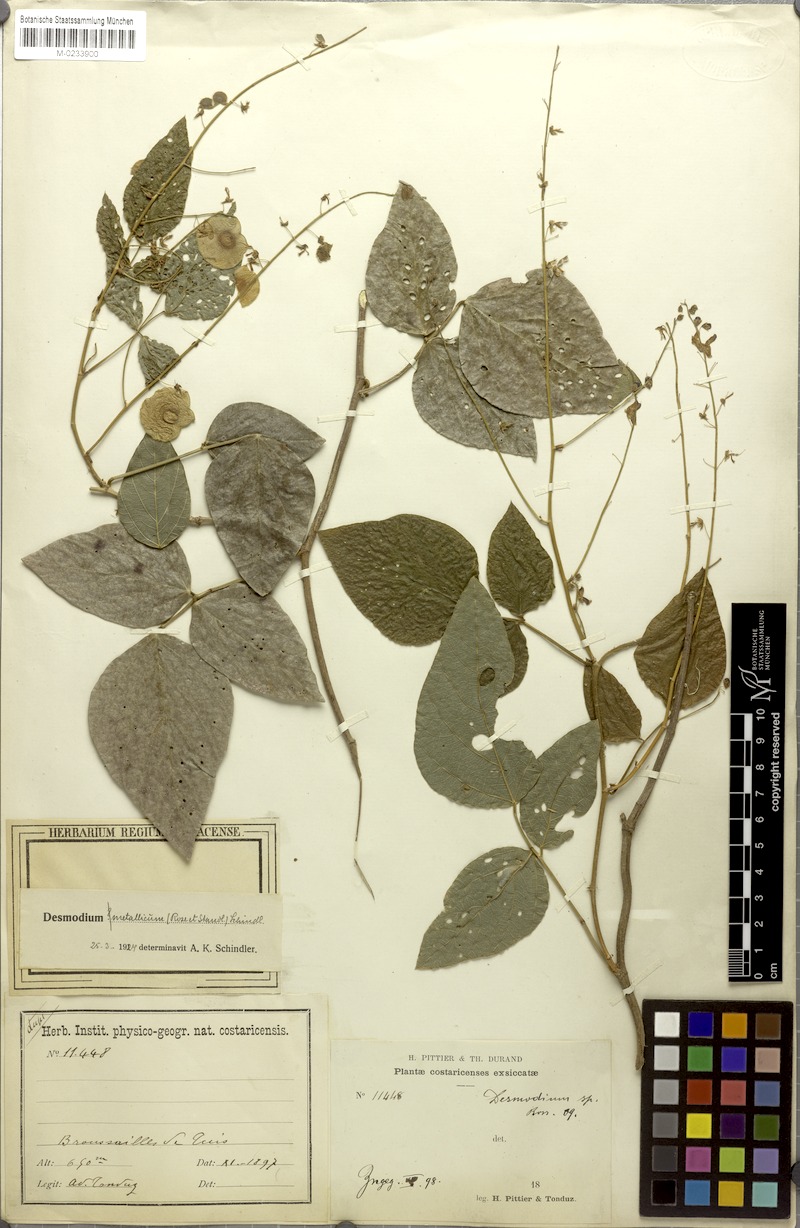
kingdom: Plantae
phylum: Tracheophyta
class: Magnoliopsida
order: Fabales
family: Fabaceae
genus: Desmodium
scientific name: Desmodium rhynchodesmum
